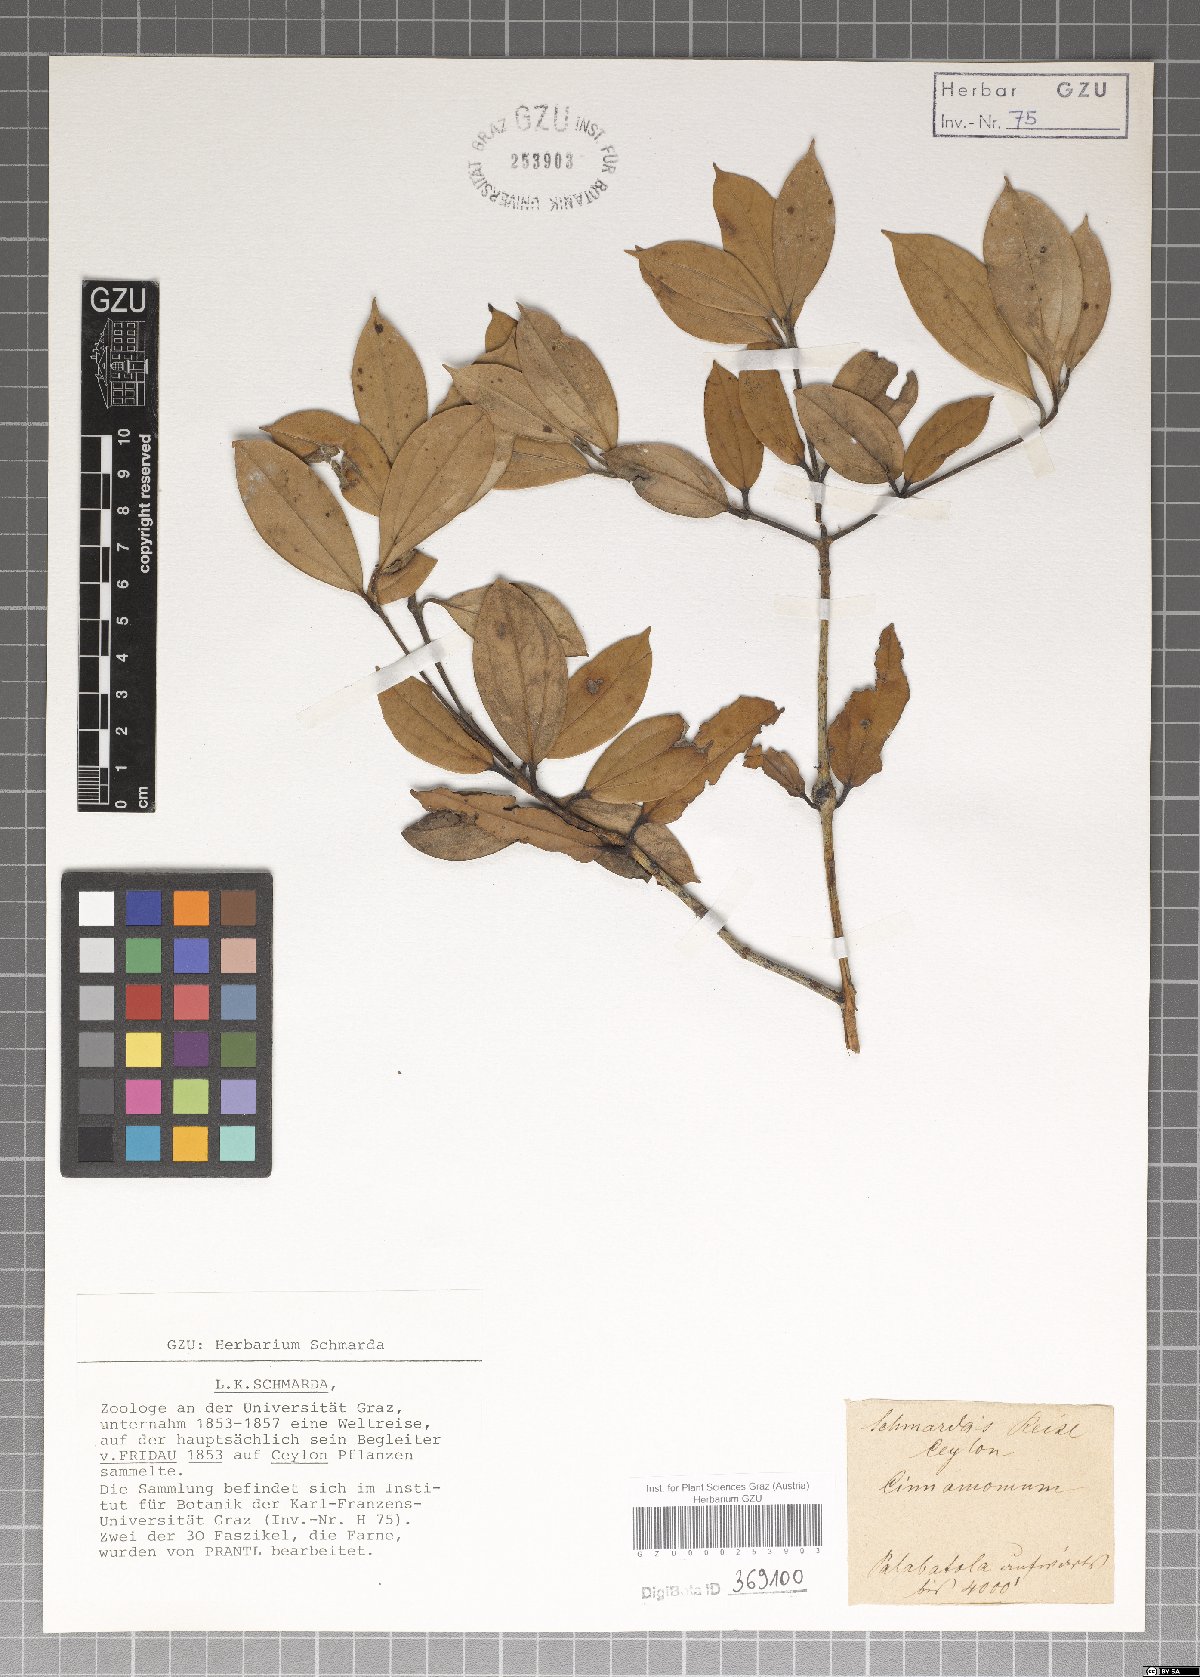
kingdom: Plantae
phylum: Tracheophyta
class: Magnoliopsida
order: Laurales
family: Lauraceae
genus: Cinnamomum
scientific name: Cinnamomum
